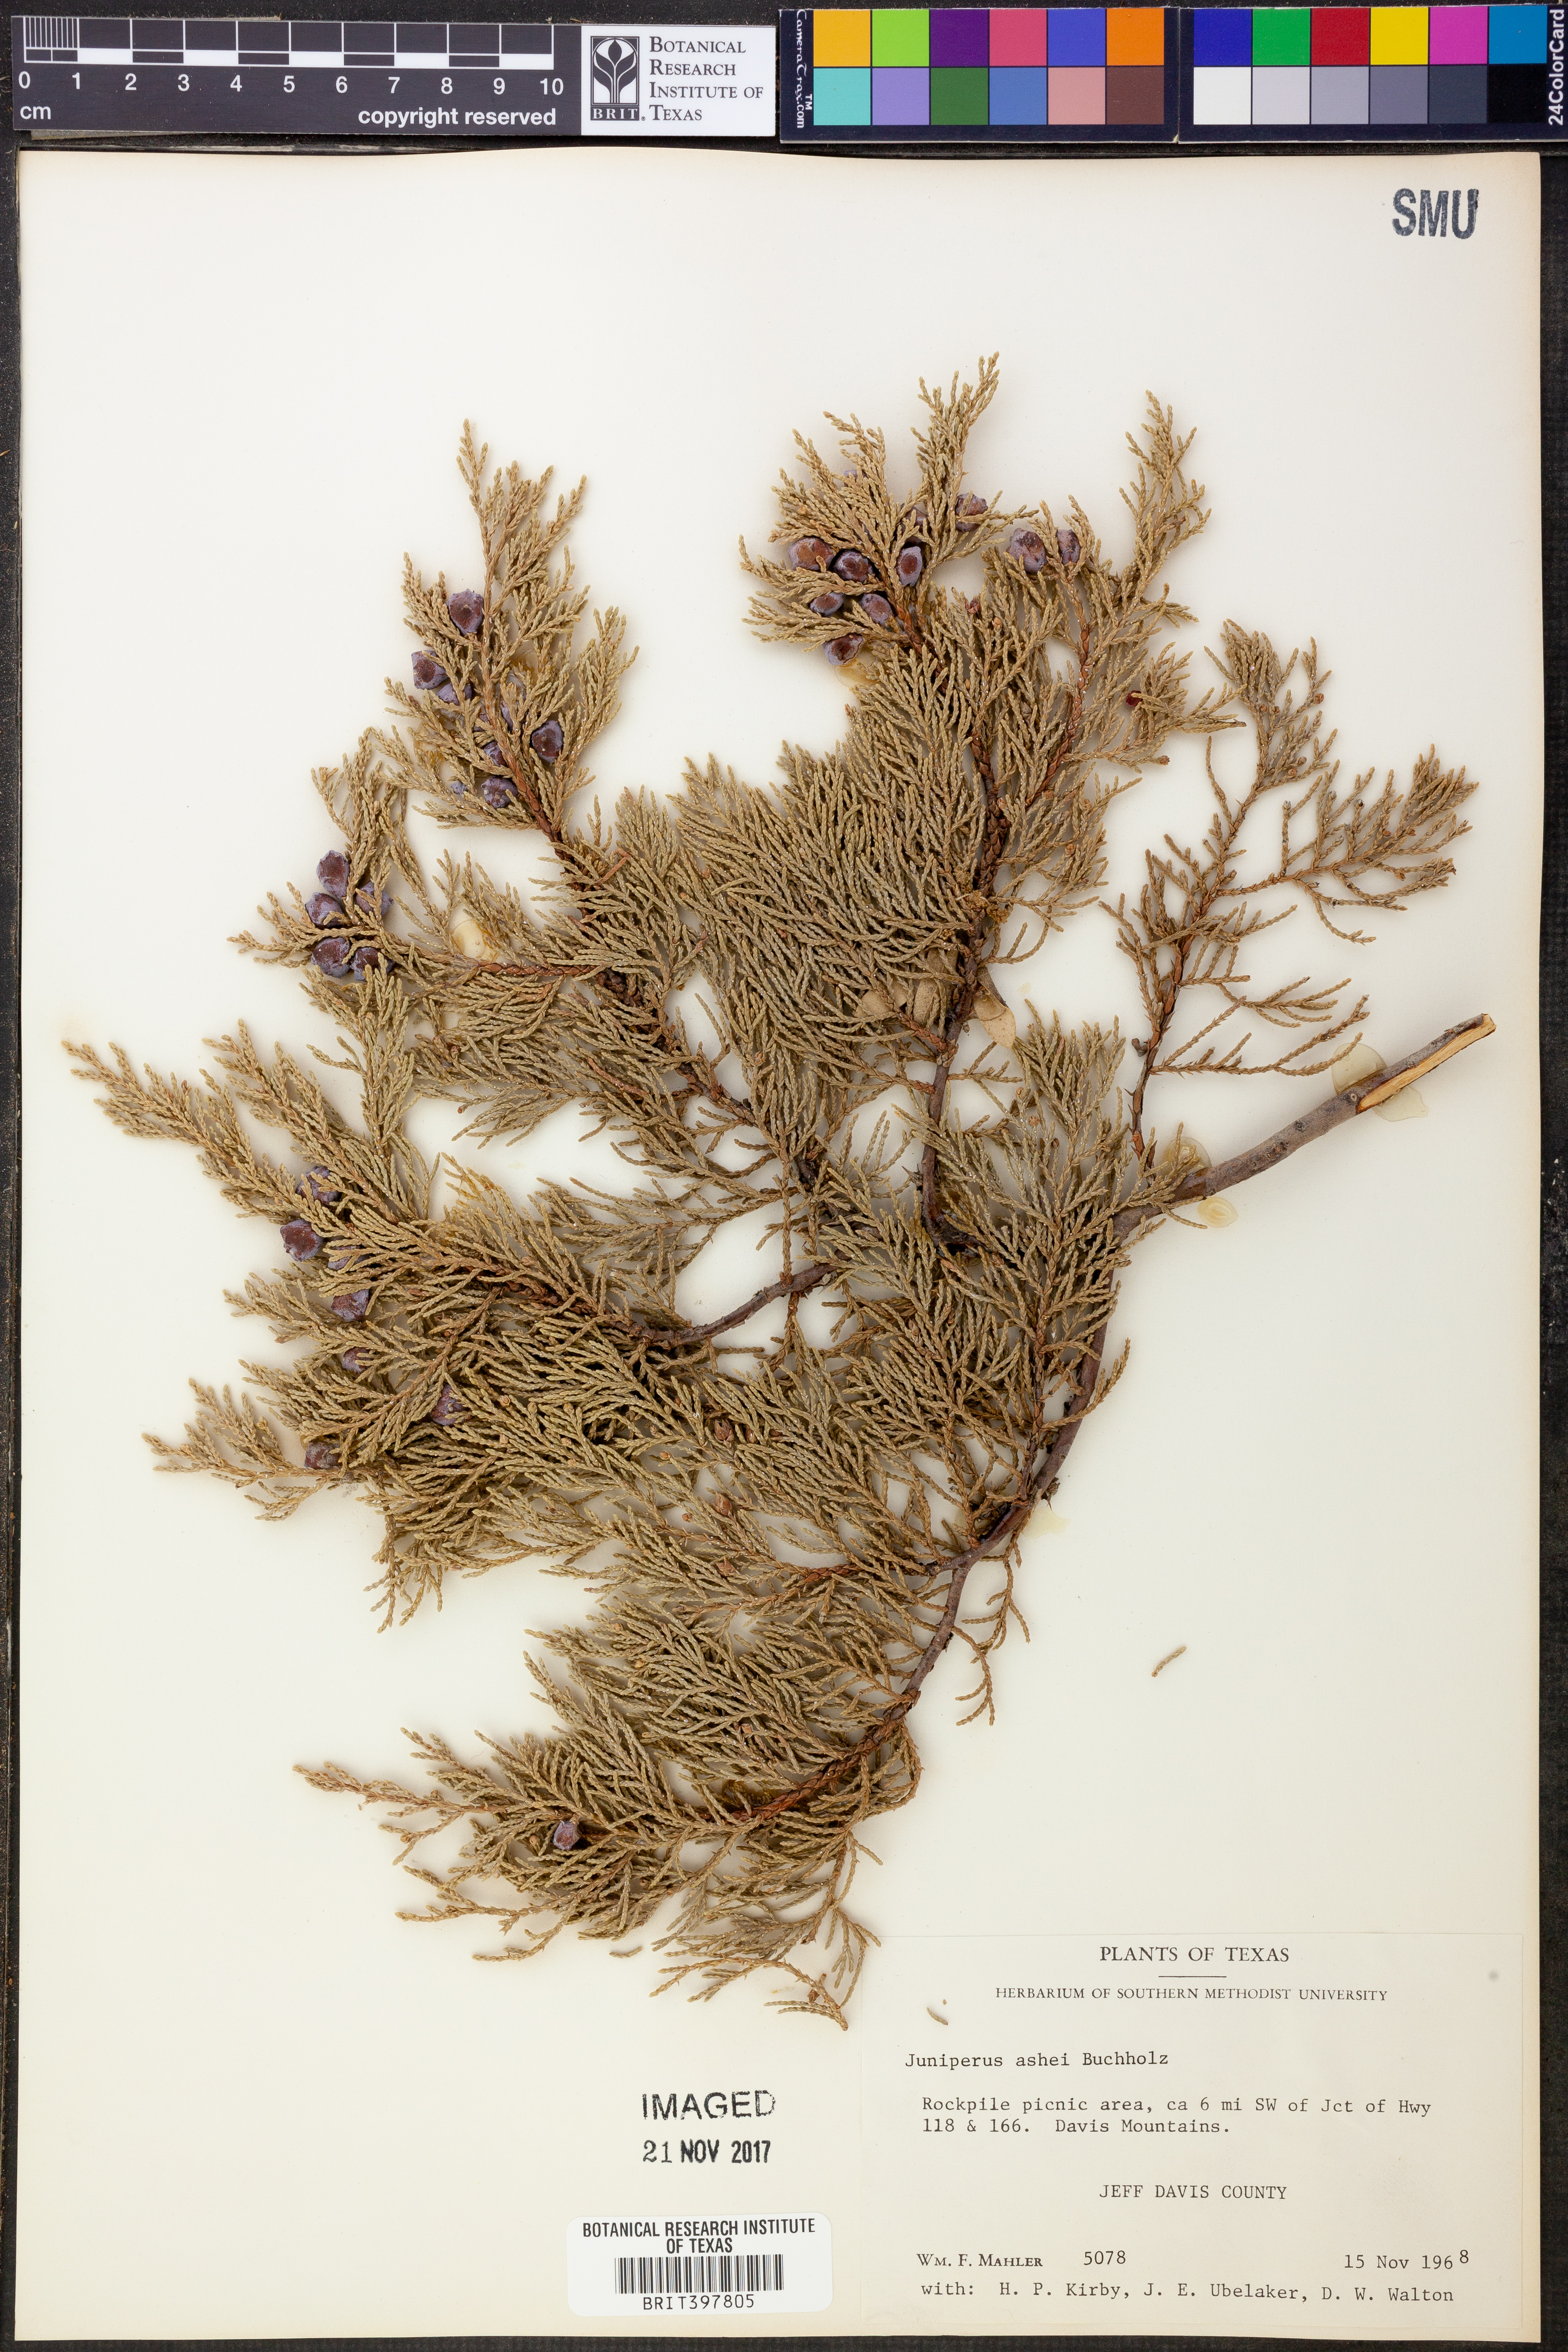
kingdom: Plantae
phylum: Tracheophyta
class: Pinopsida
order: Pinales
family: Cupressaceae
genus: Juniperus
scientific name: Juniperus ashei
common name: Mexican juniper
